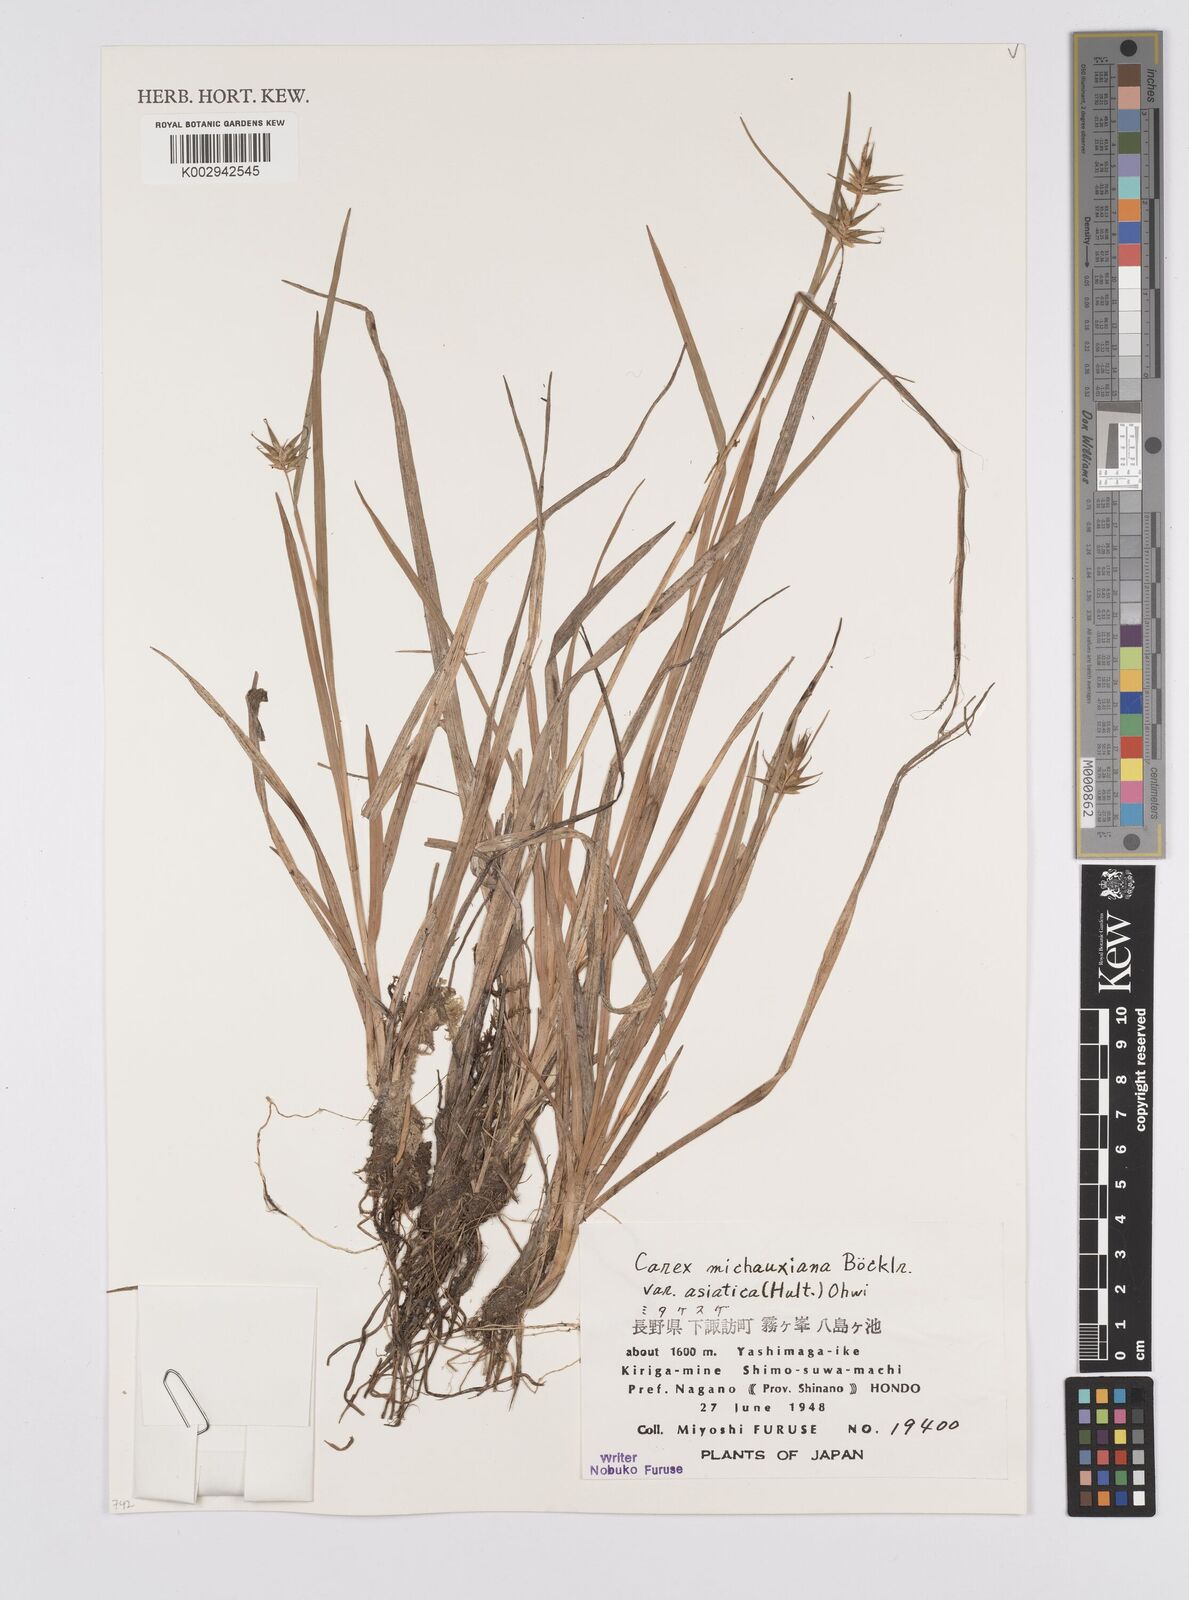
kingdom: Plantae
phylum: Tracheophyta
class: Liliopsida
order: Poales
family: Cyperaceae
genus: Carex
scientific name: Carex michauxiana
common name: Michaux's sedge
